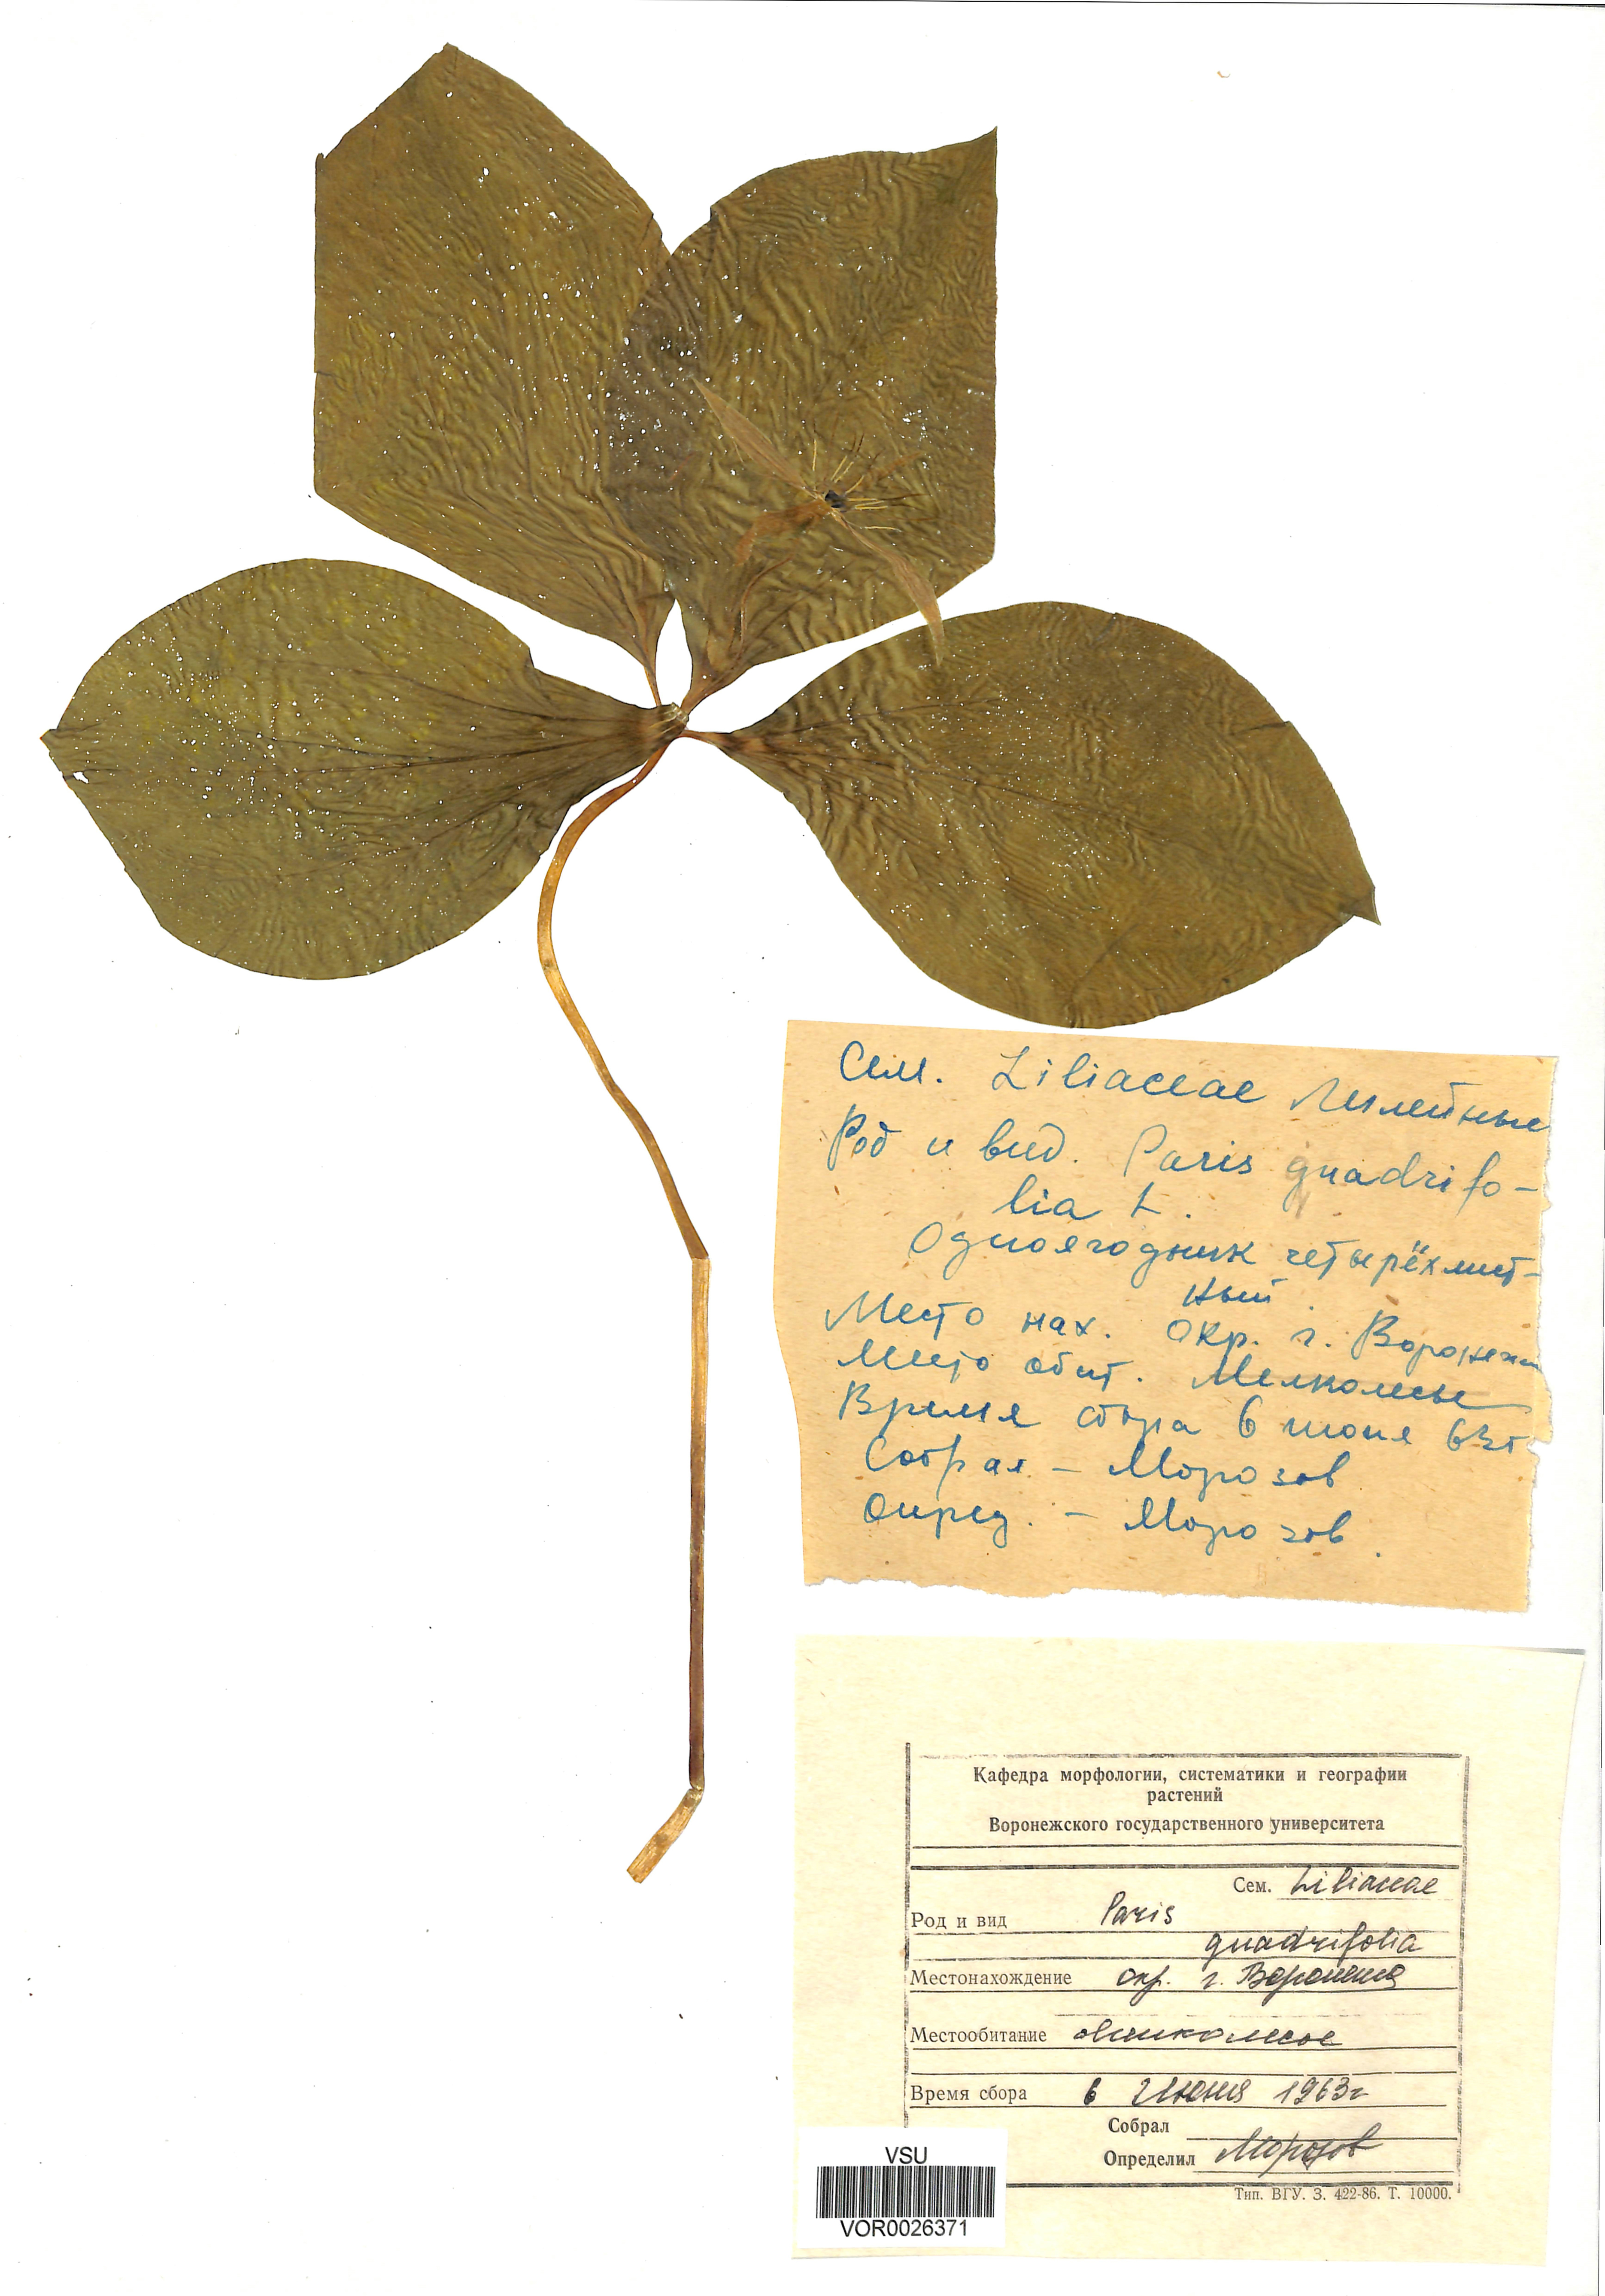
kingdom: Plantae
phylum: Tracheophyta
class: Liliopsida
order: Liliales
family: Melanthiaceae
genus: Paris
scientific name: Paris quadrifolia
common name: Herb-paris
